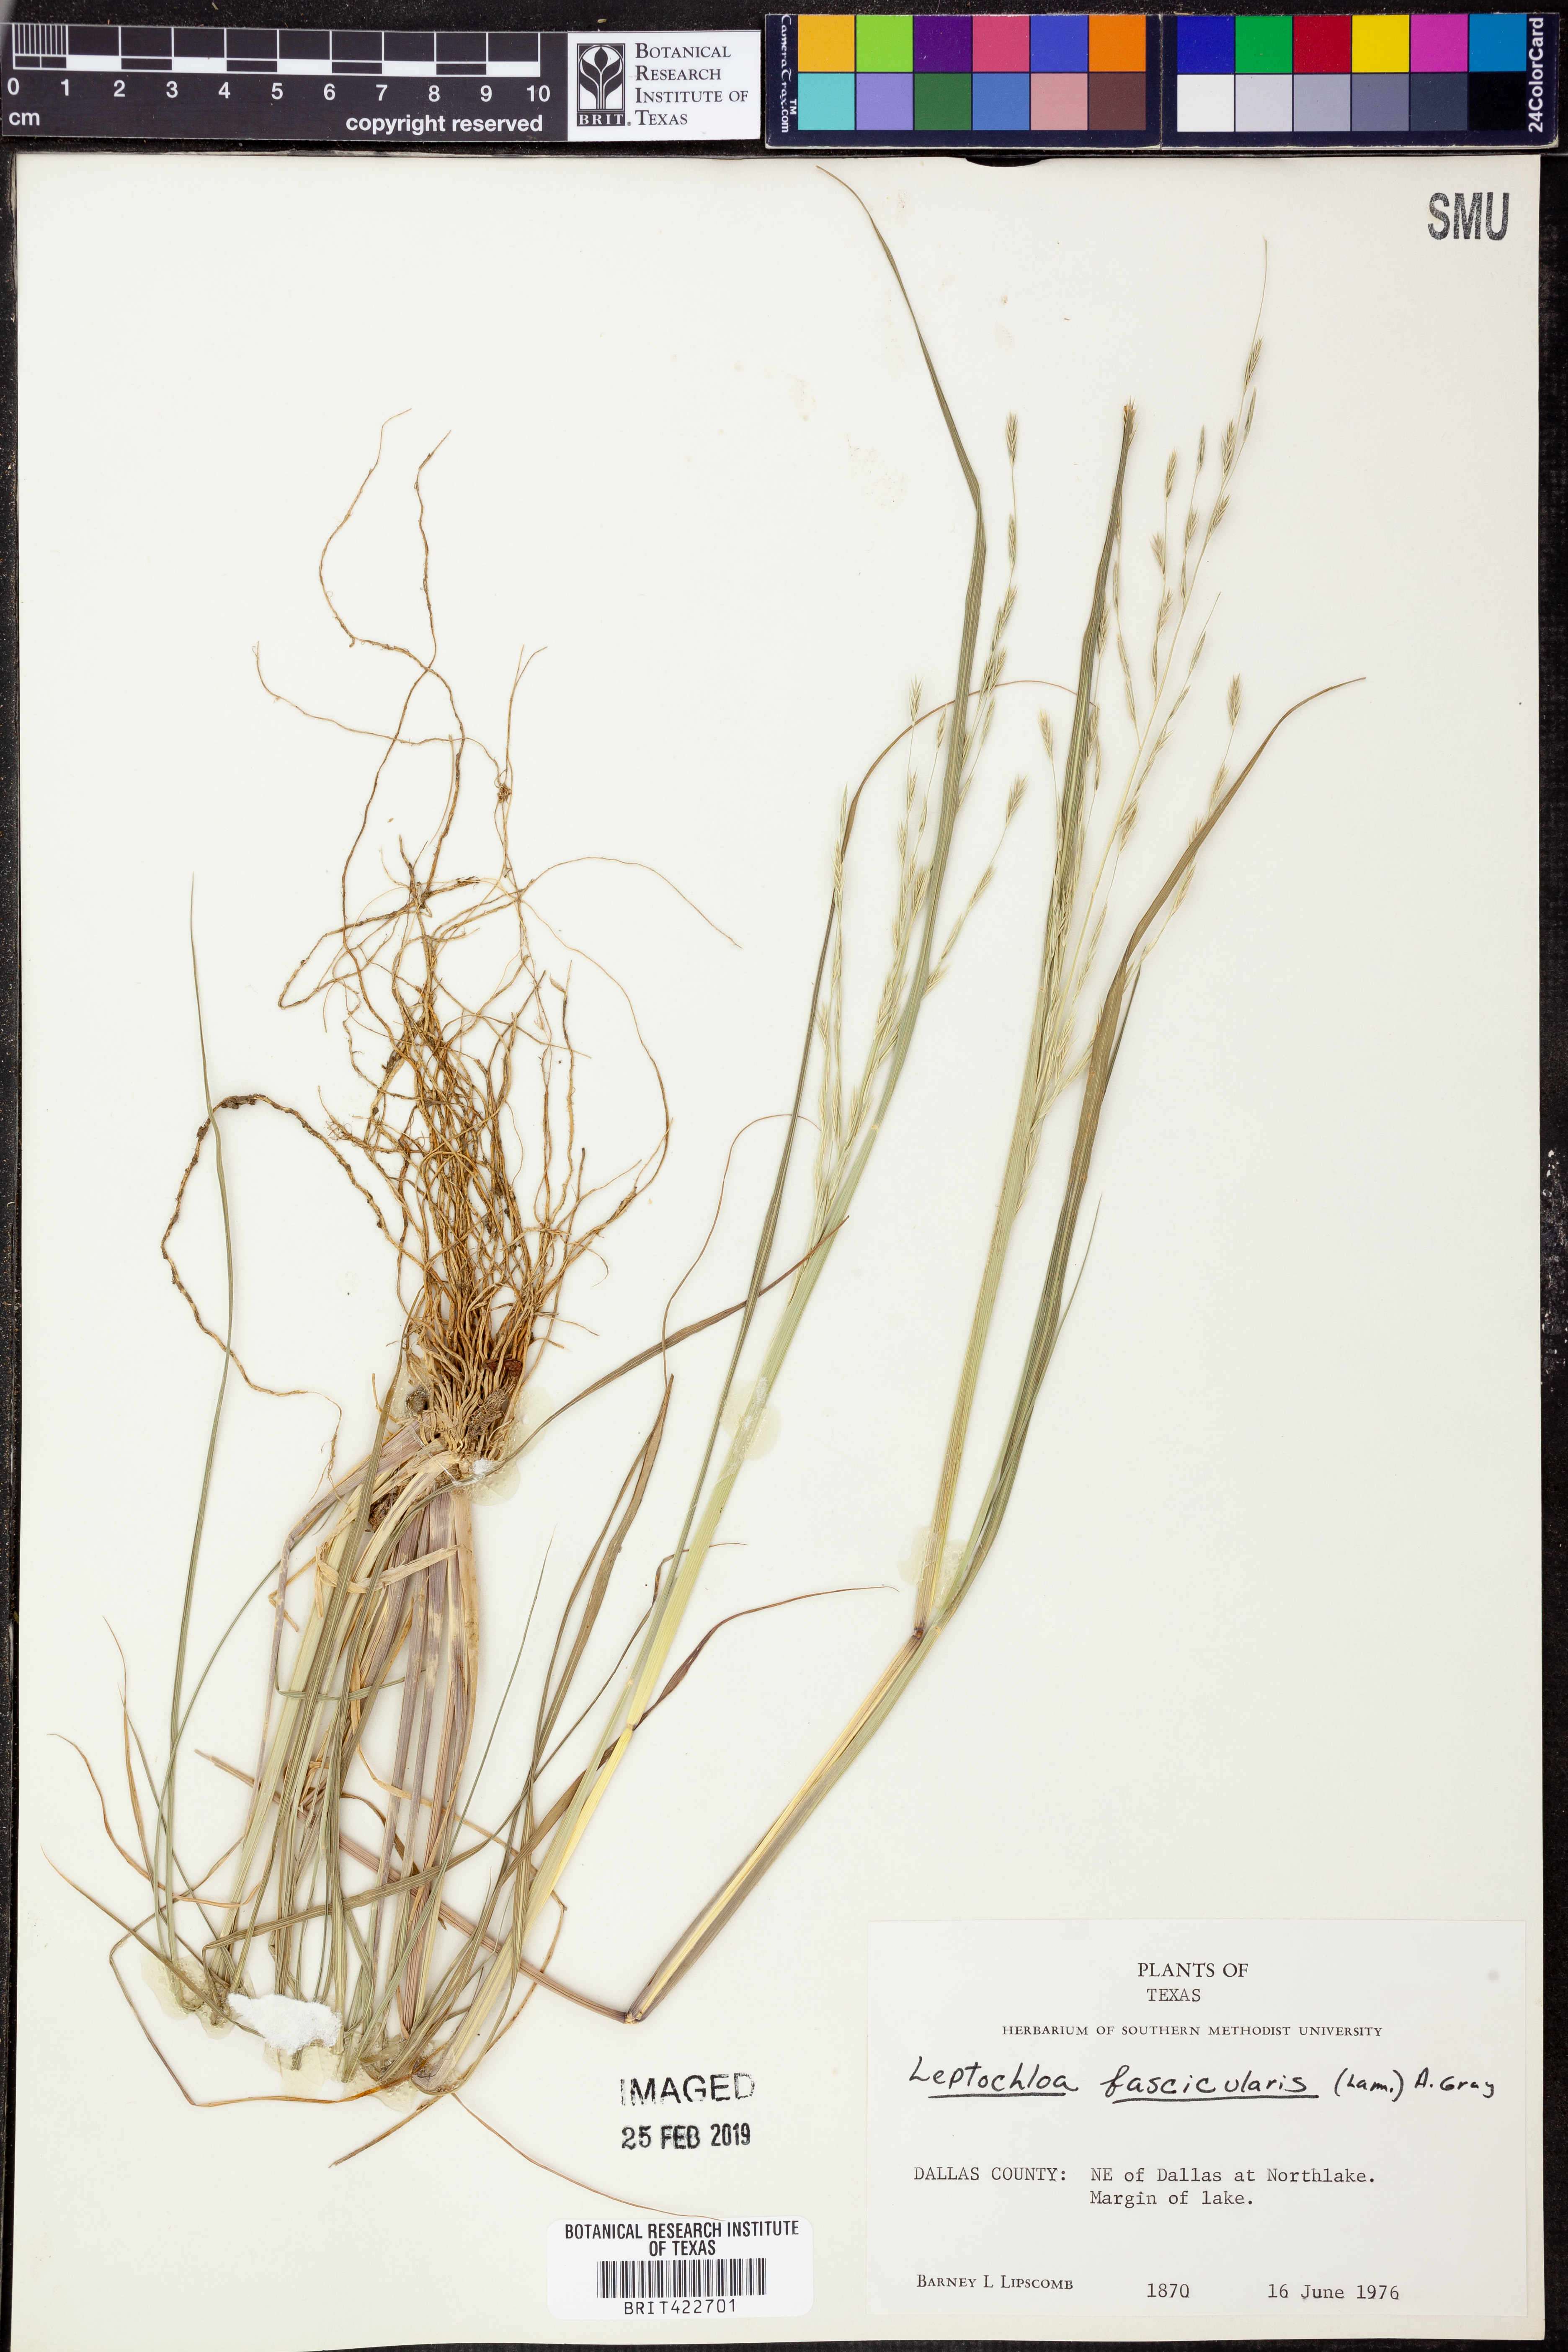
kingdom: Plantae
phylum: Tracheophyta
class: Liliopsida
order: Poales
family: Poaceae
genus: Diplachne
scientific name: Diplachne fusca
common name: Brown beetle grass
